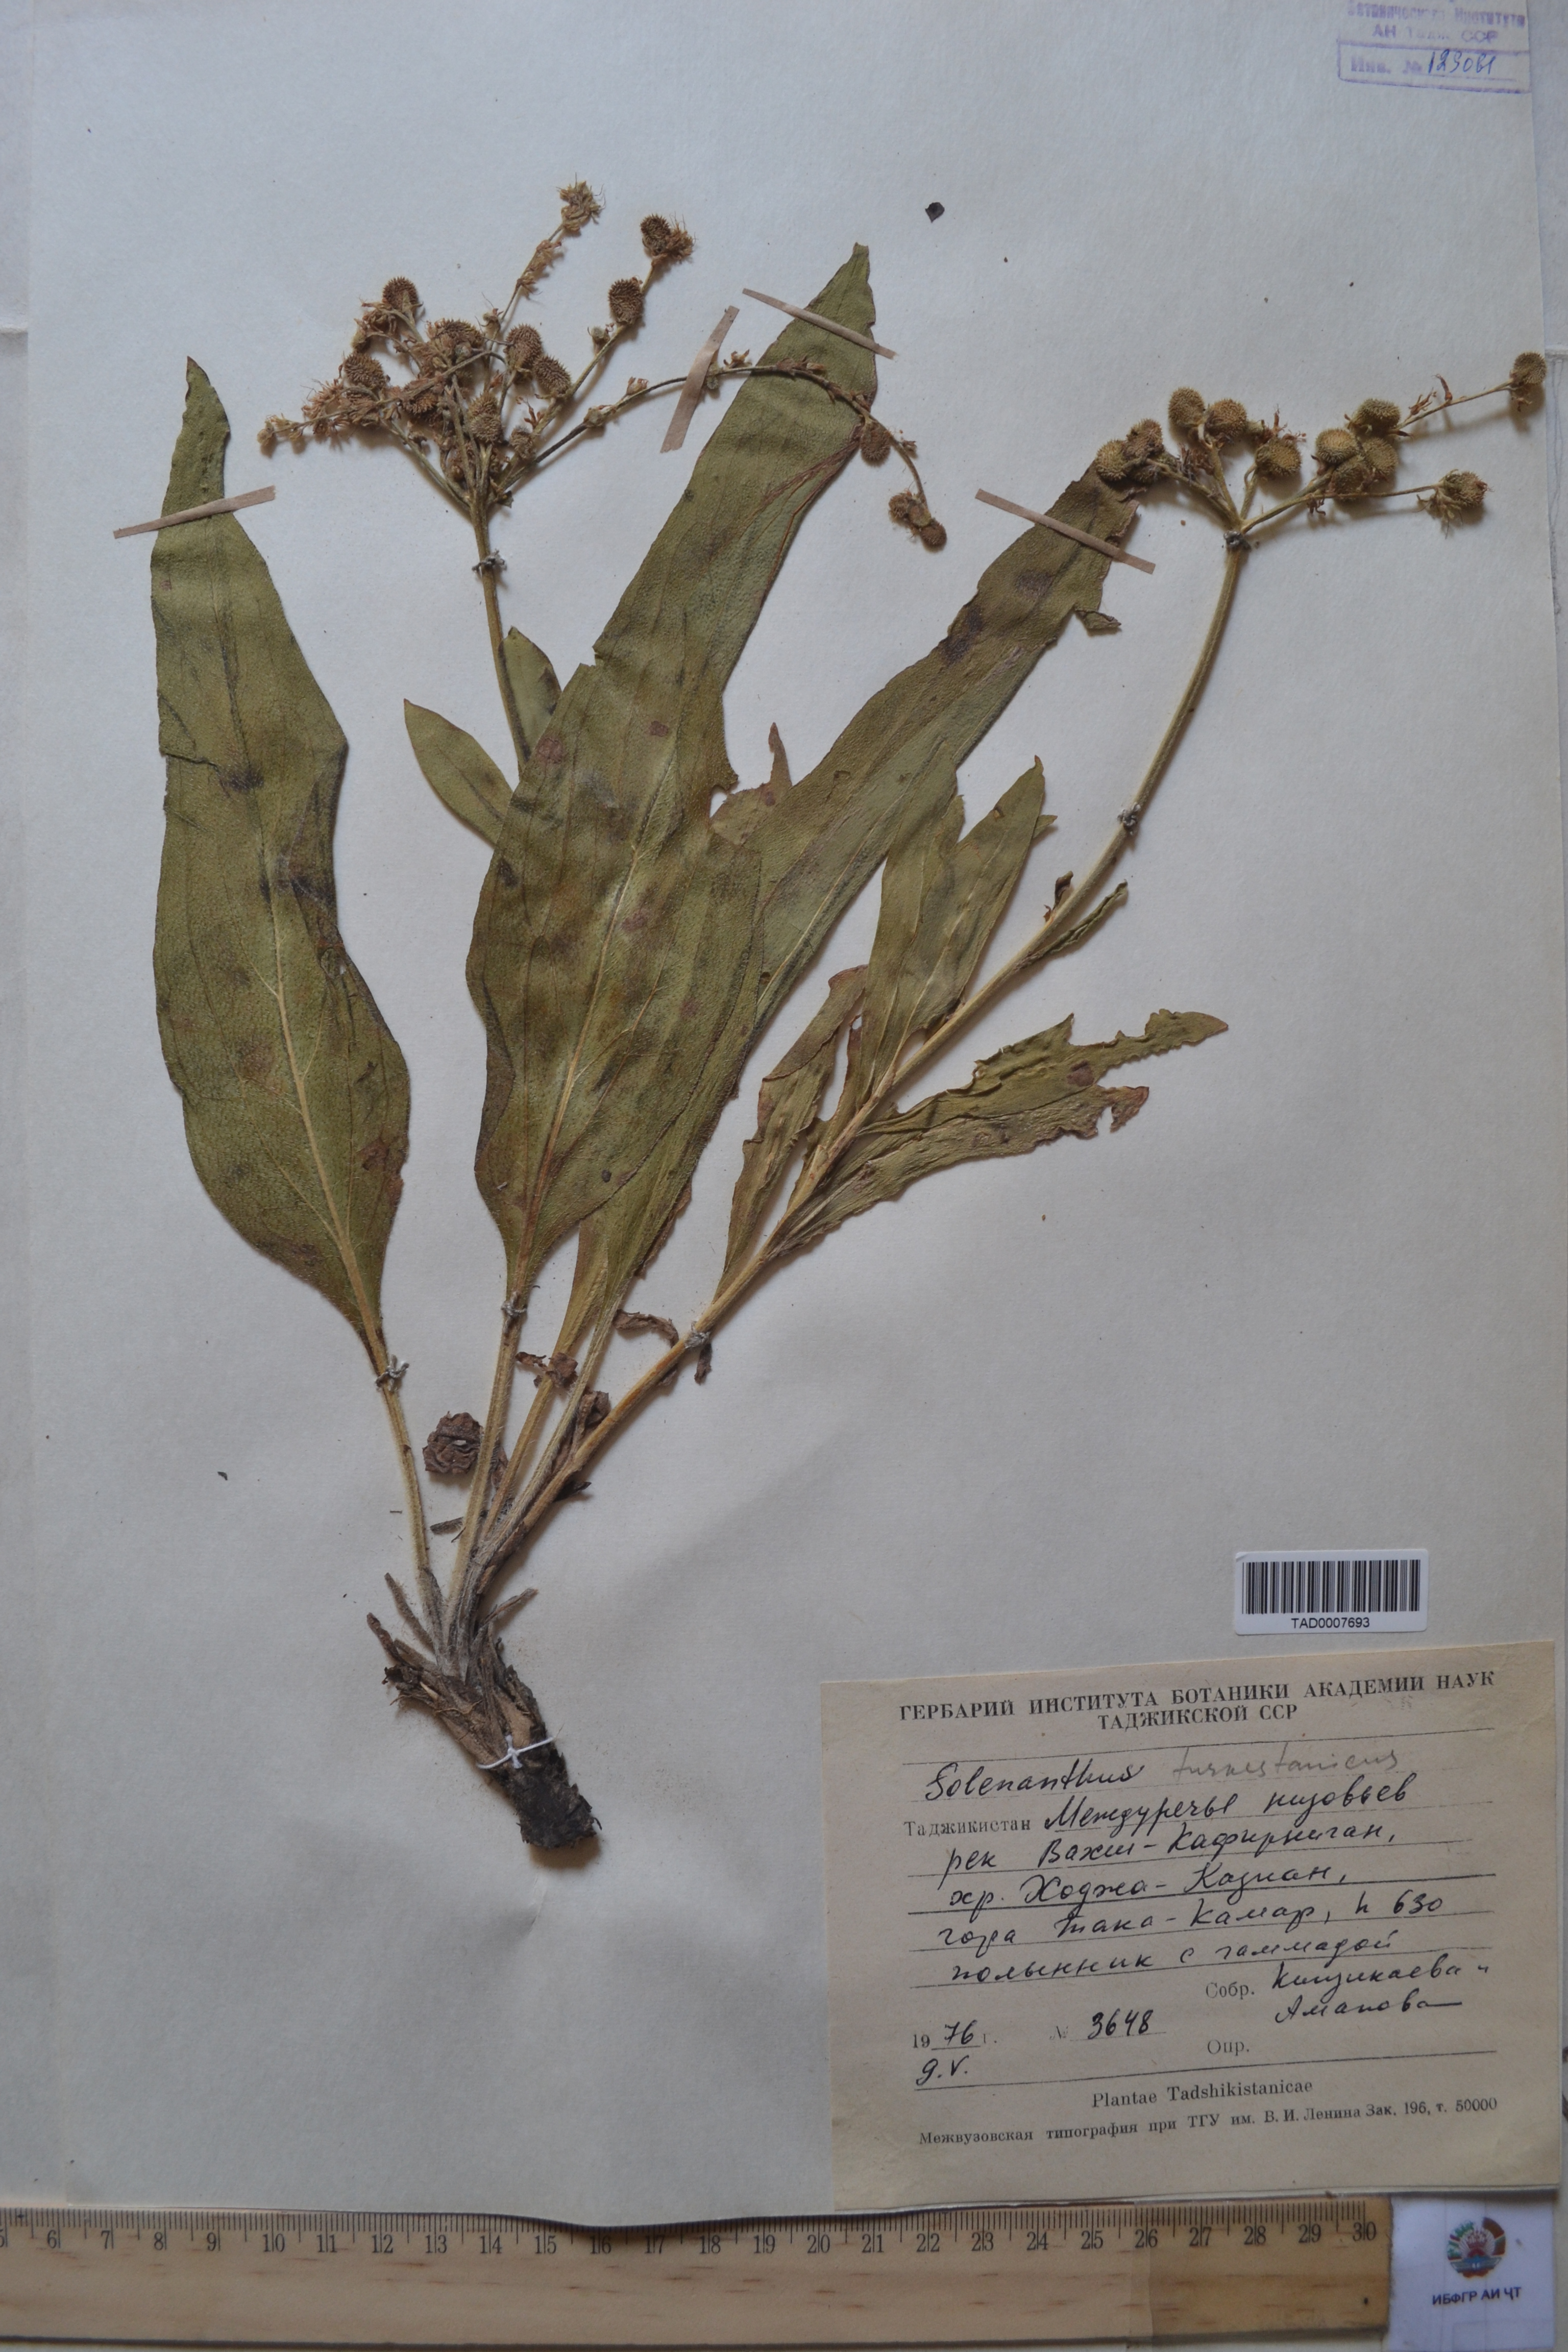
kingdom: Plantae
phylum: Tracheophyta
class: Magnoliopsida
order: Boraginales
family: Boraginaceae
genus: Solenanthus
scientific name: Solenanthus turkestanicus
